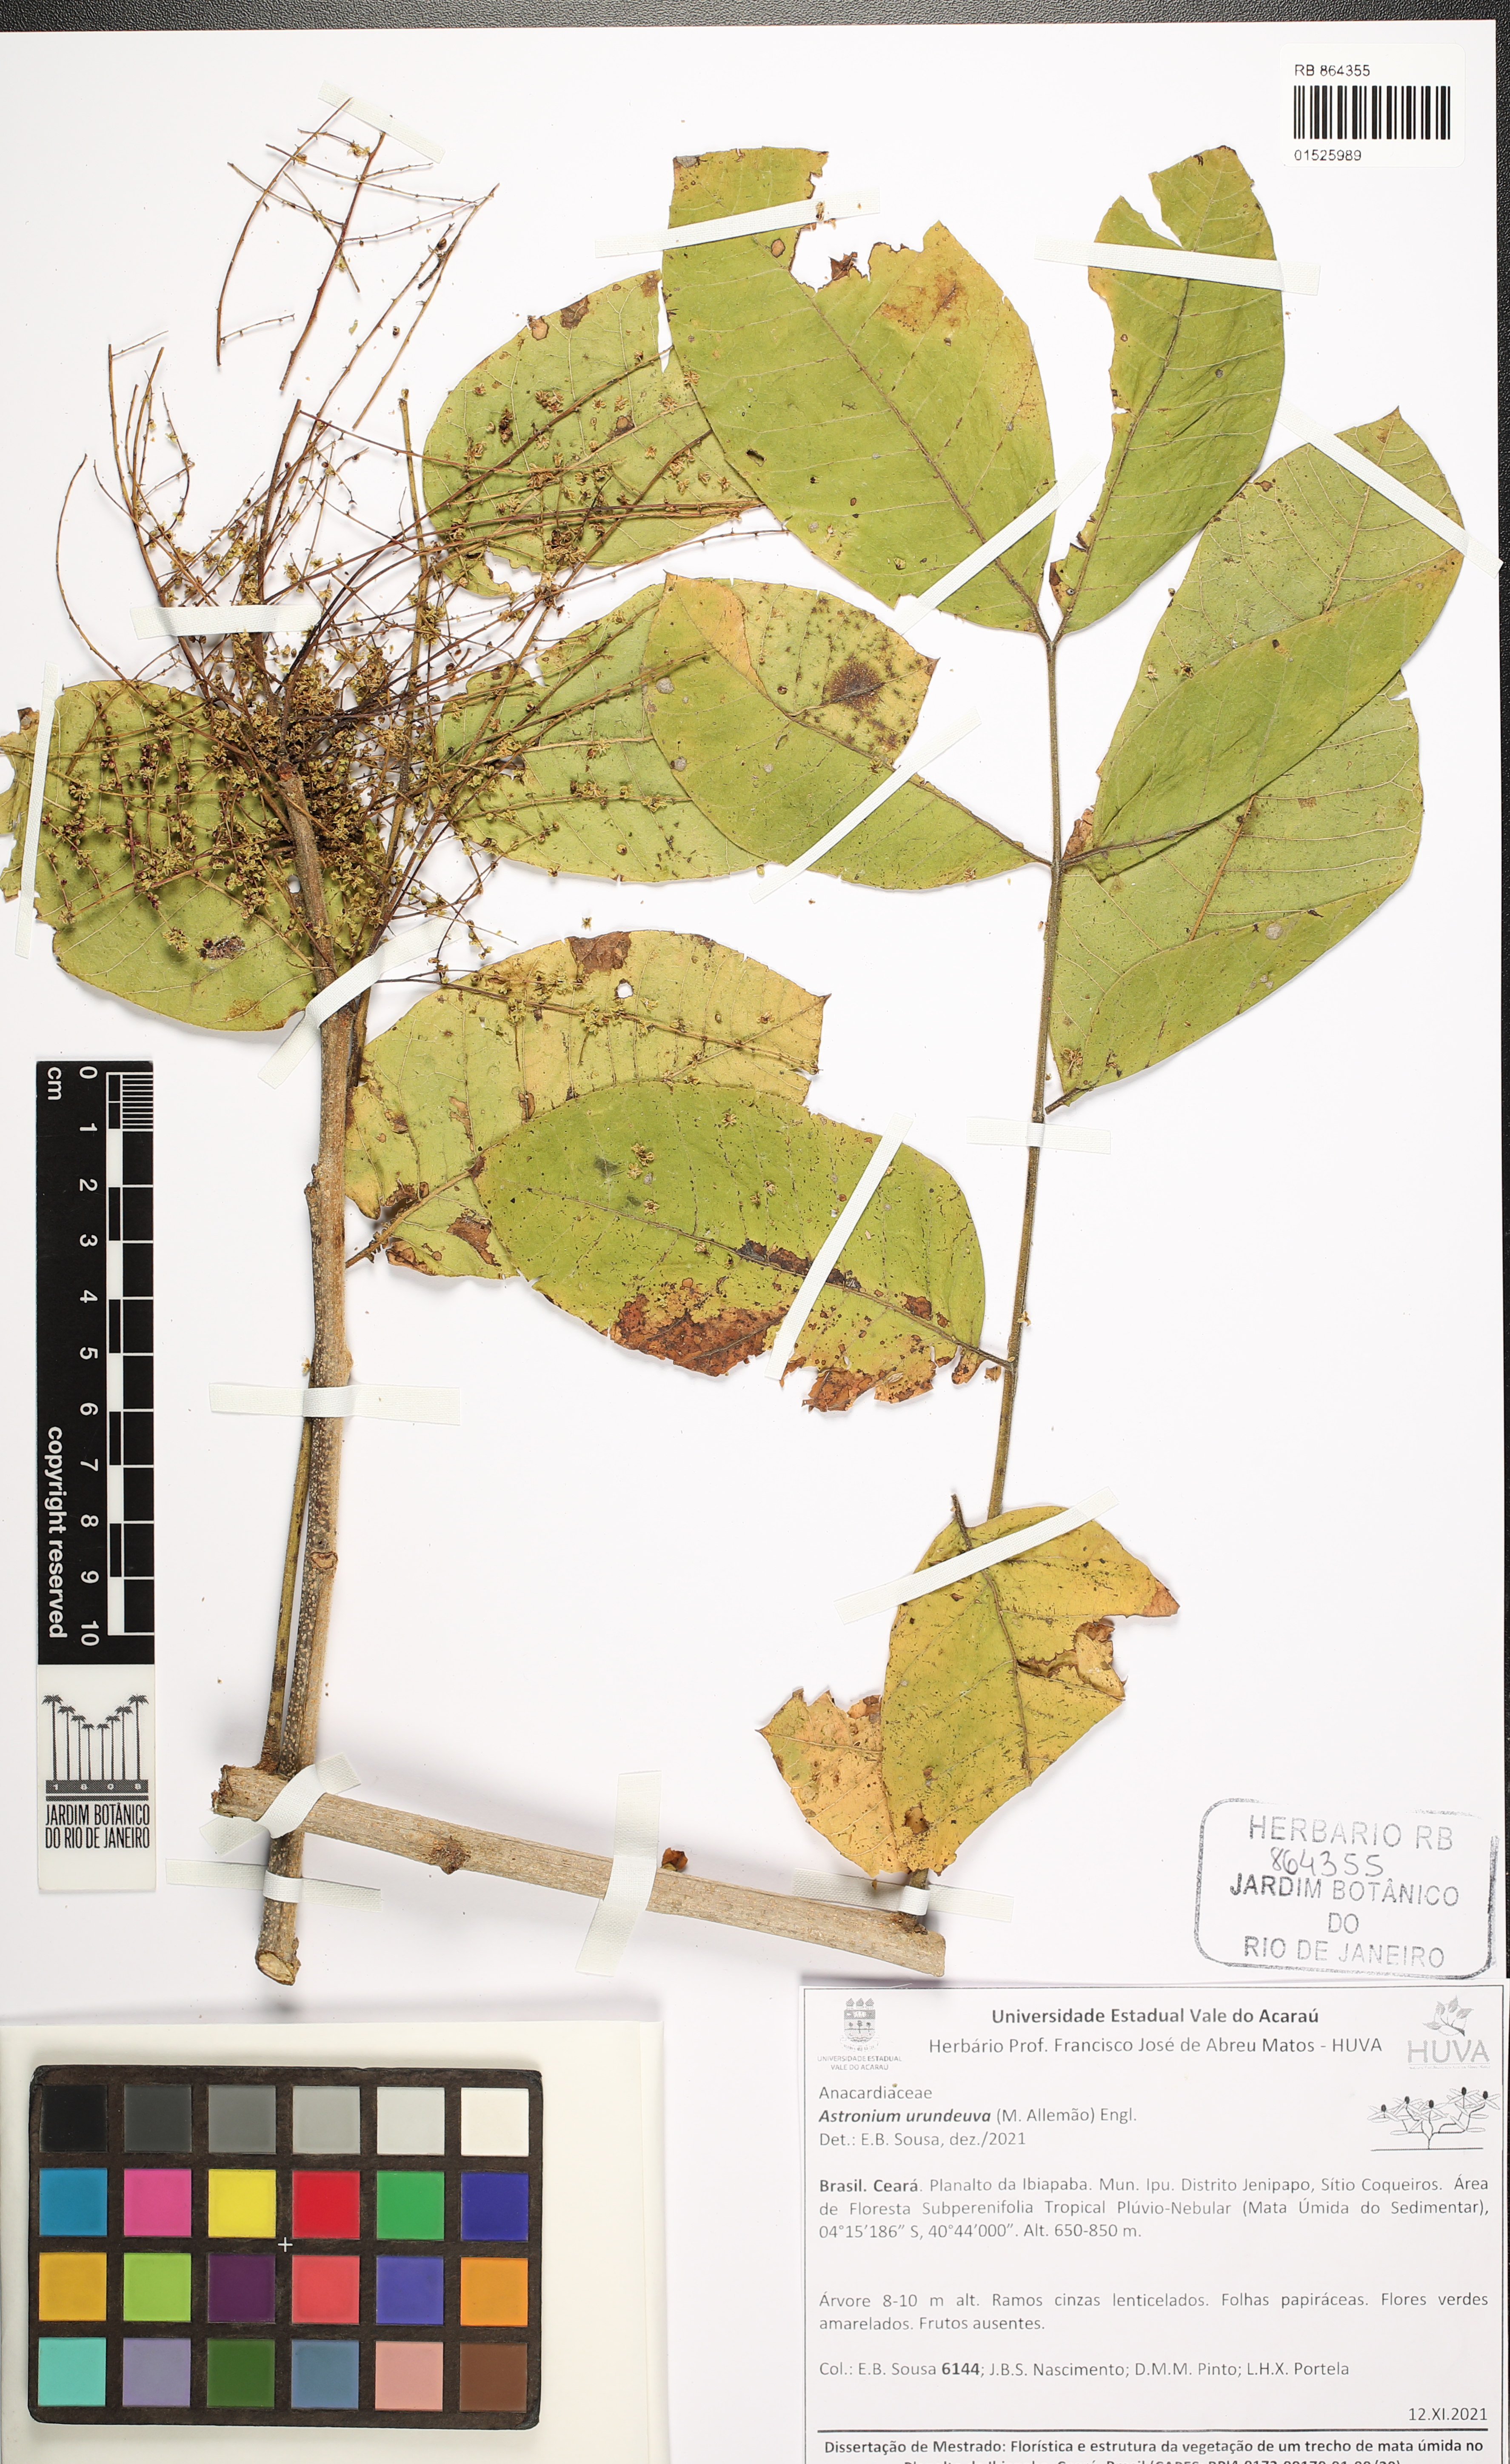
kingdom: Plantae
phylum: Tracheophyta
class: Magnoliopsida
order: Sapindales
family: Anacardiaceae
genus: Myracrodruon
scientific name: Myracrodruon urundeuva
